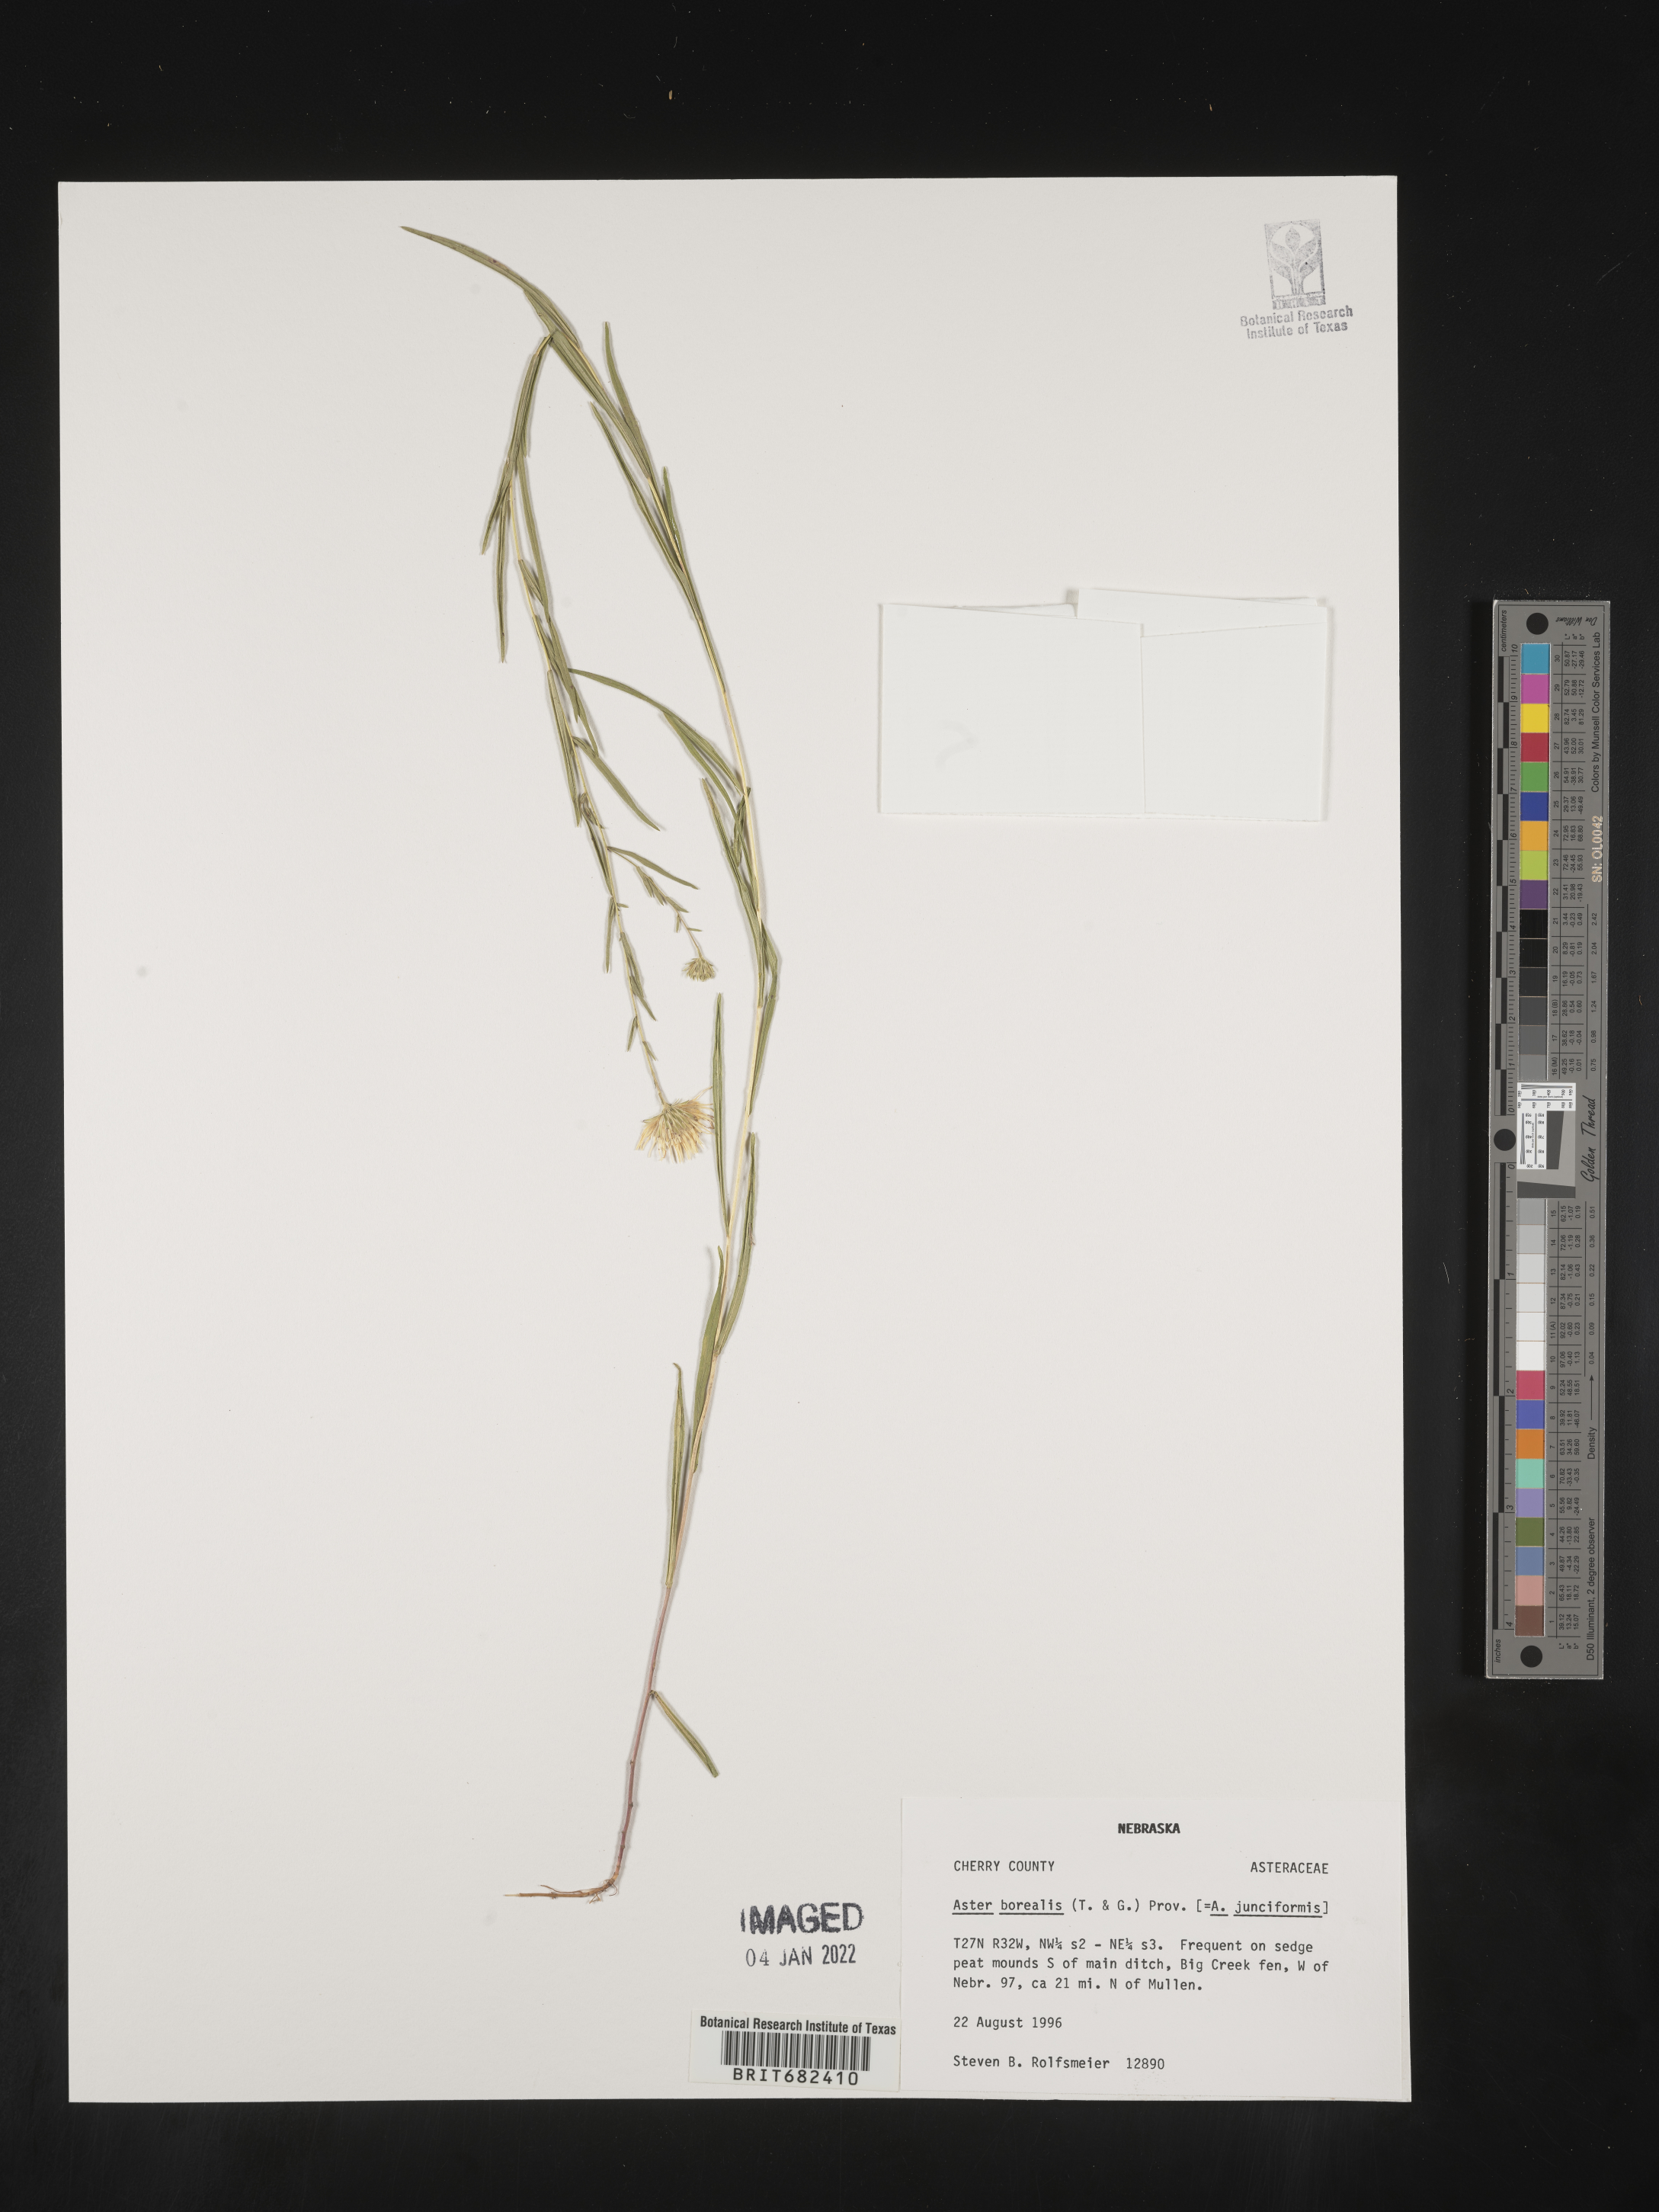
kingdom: Plantae
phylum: Tracheophyta
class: Magnoliopsida
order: Asterales
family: Asteraceae
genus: Aster
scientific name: Aster
